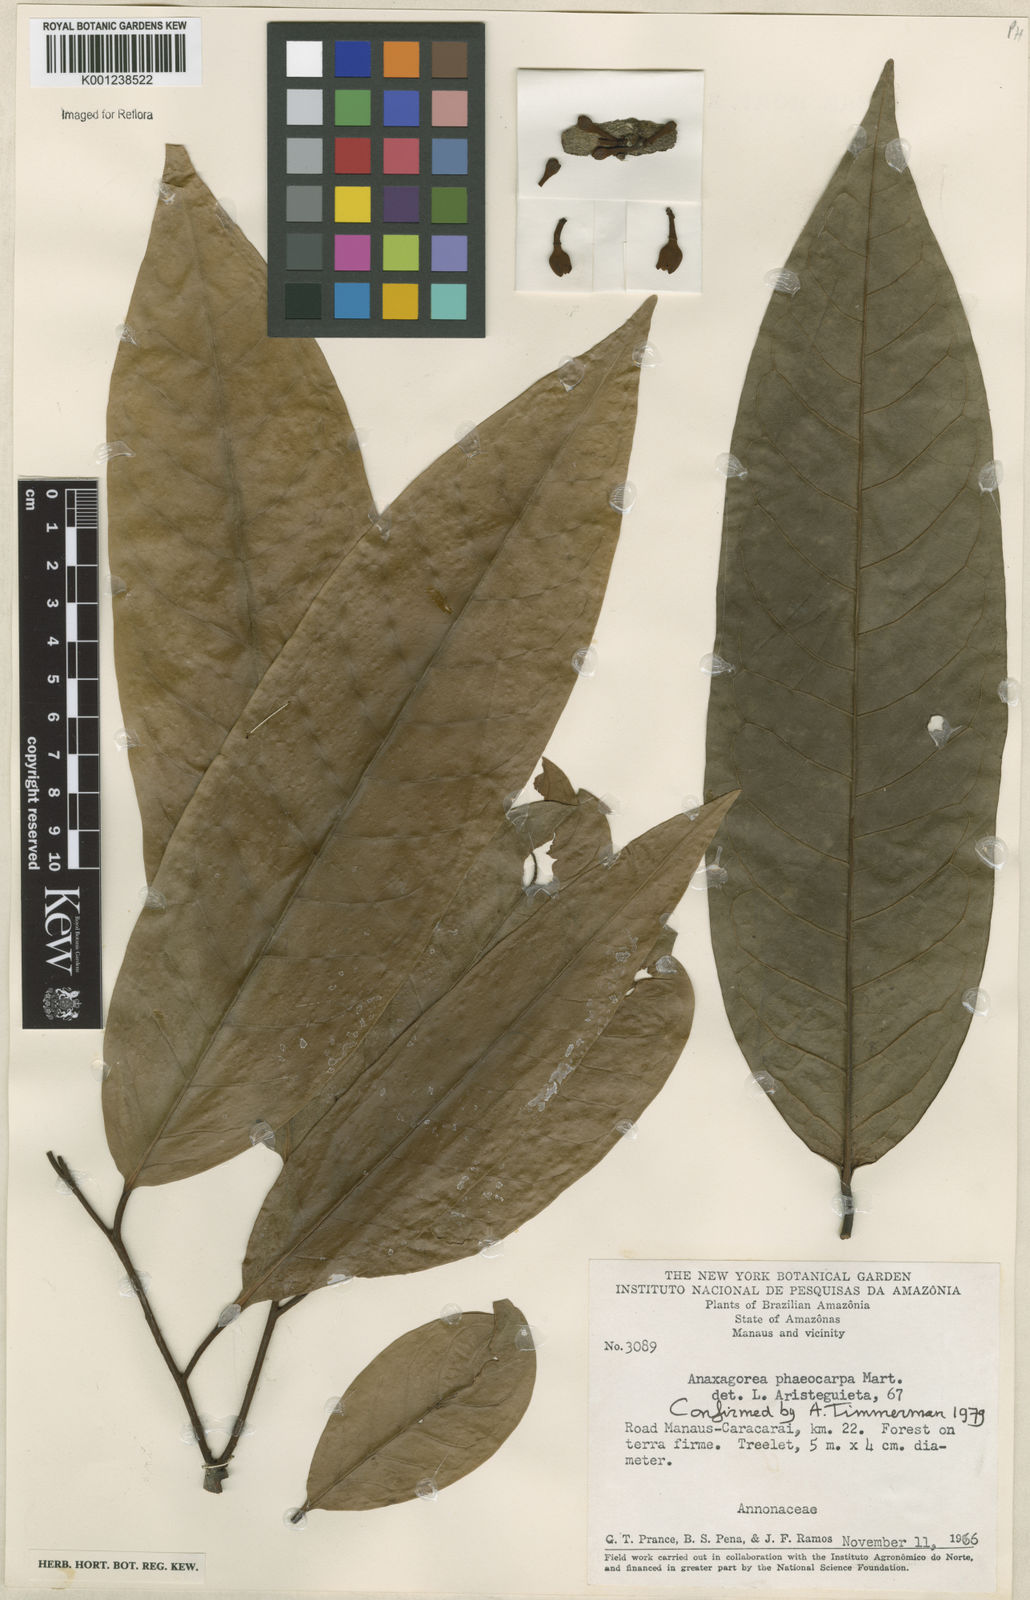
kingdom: Plantae
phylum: Tracheophyta
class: Magnoliopsida
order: Magnoliales
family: Annonaceae
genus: Anaxagorea
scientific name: Anaxagorea phaeocarpa
